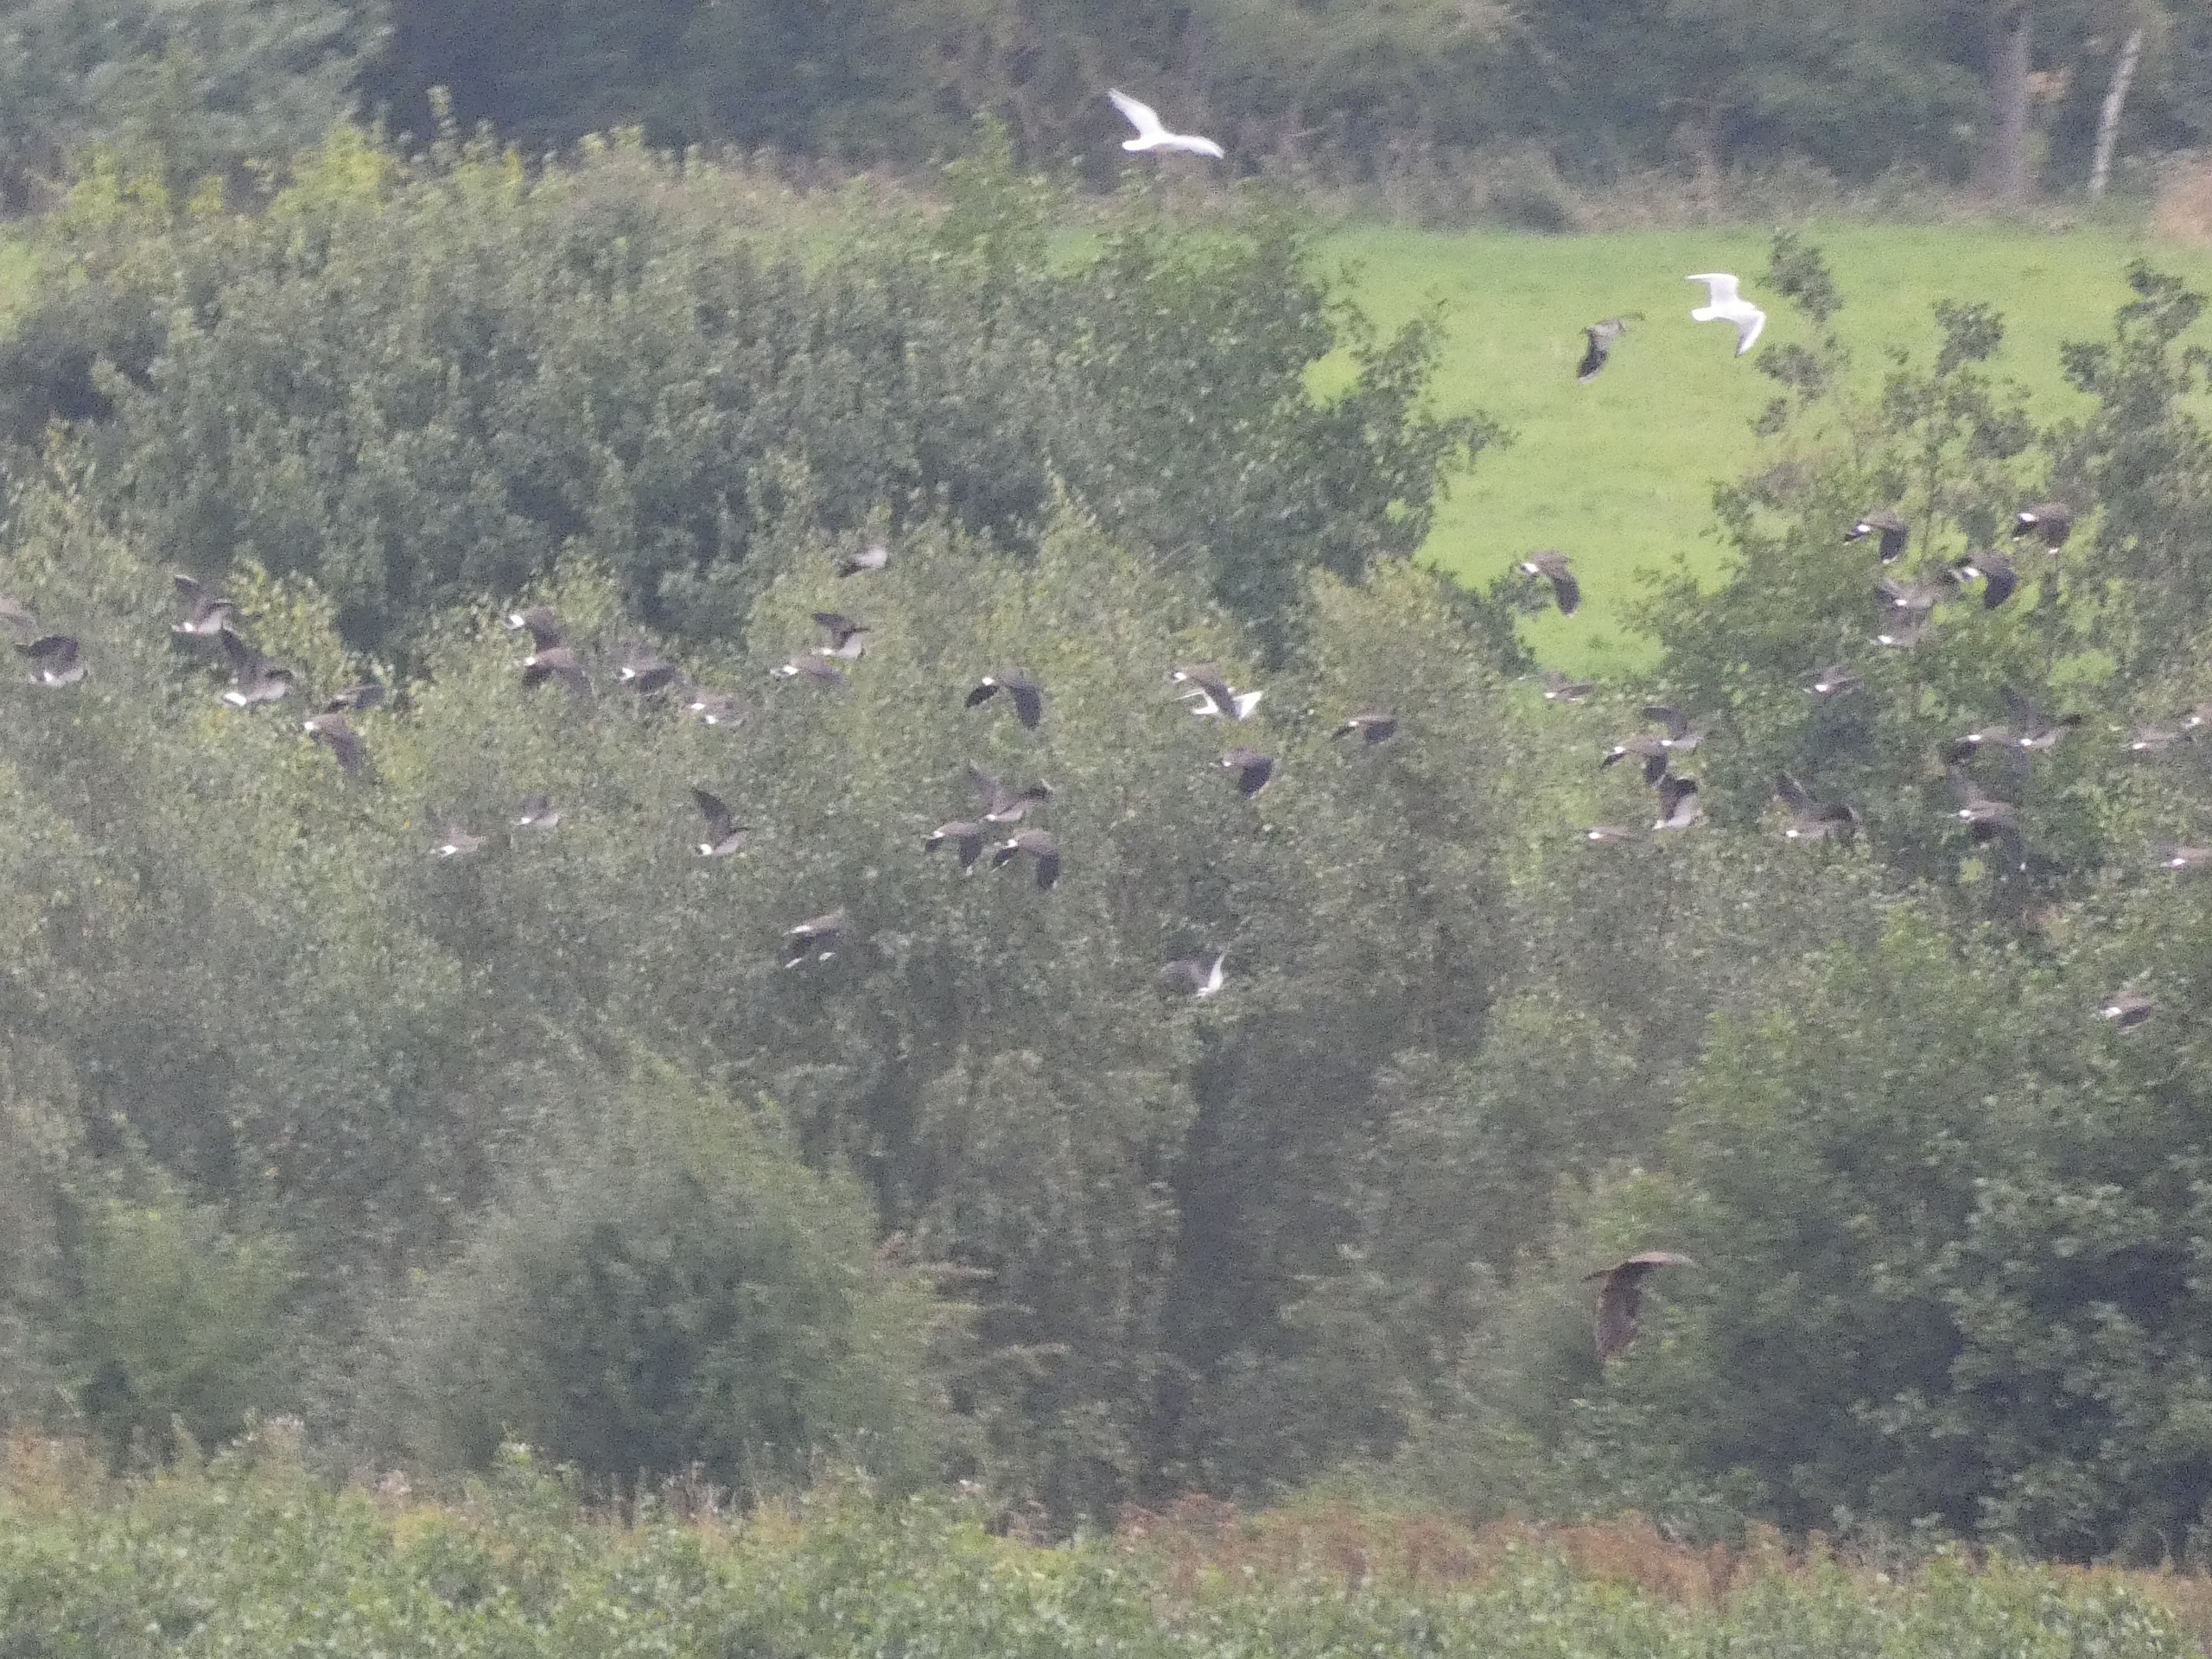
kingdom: Animalia
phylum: Chordata
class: Aves
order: Charadriiformes
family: Charadriidae
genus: Vanellus
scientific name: Vanellus vanellus
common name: Vibe
